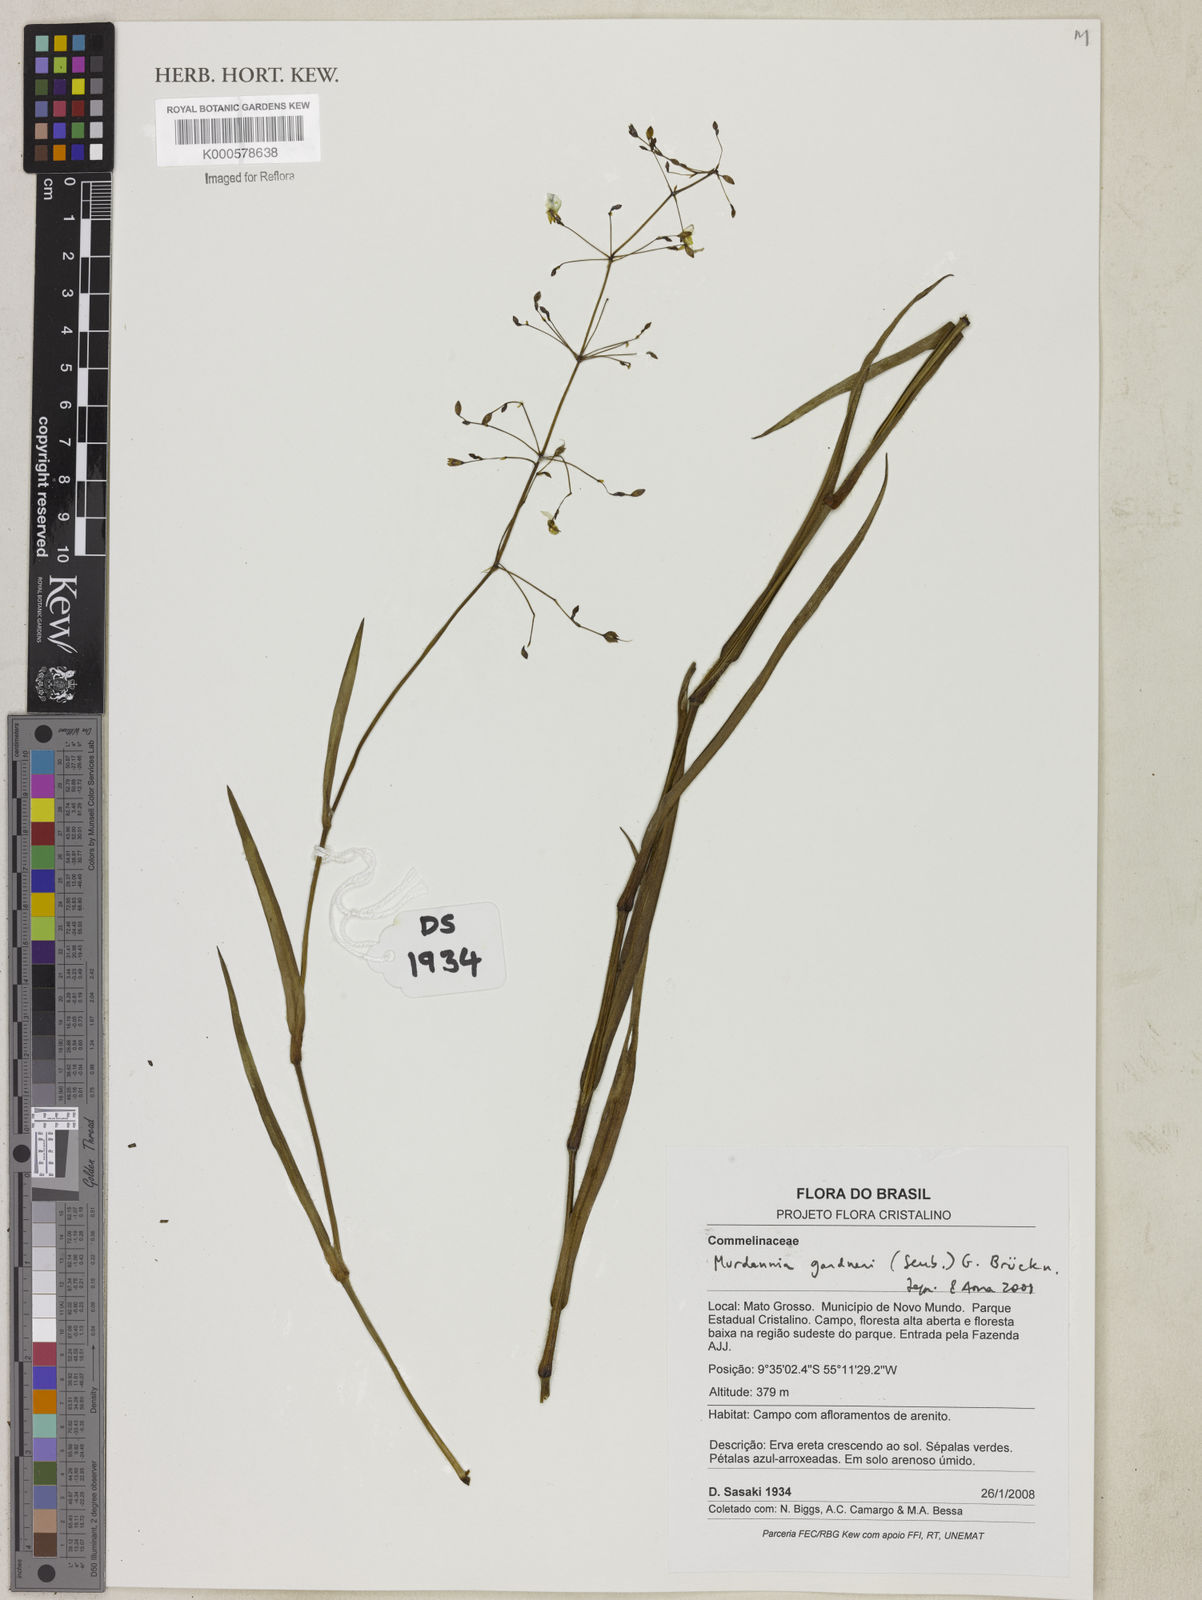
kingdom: Plantae
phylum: Tracheophyta
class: Liliopsida
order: Commelinales
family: Commelinaceae
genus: Murdannia
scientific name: Murdannia
